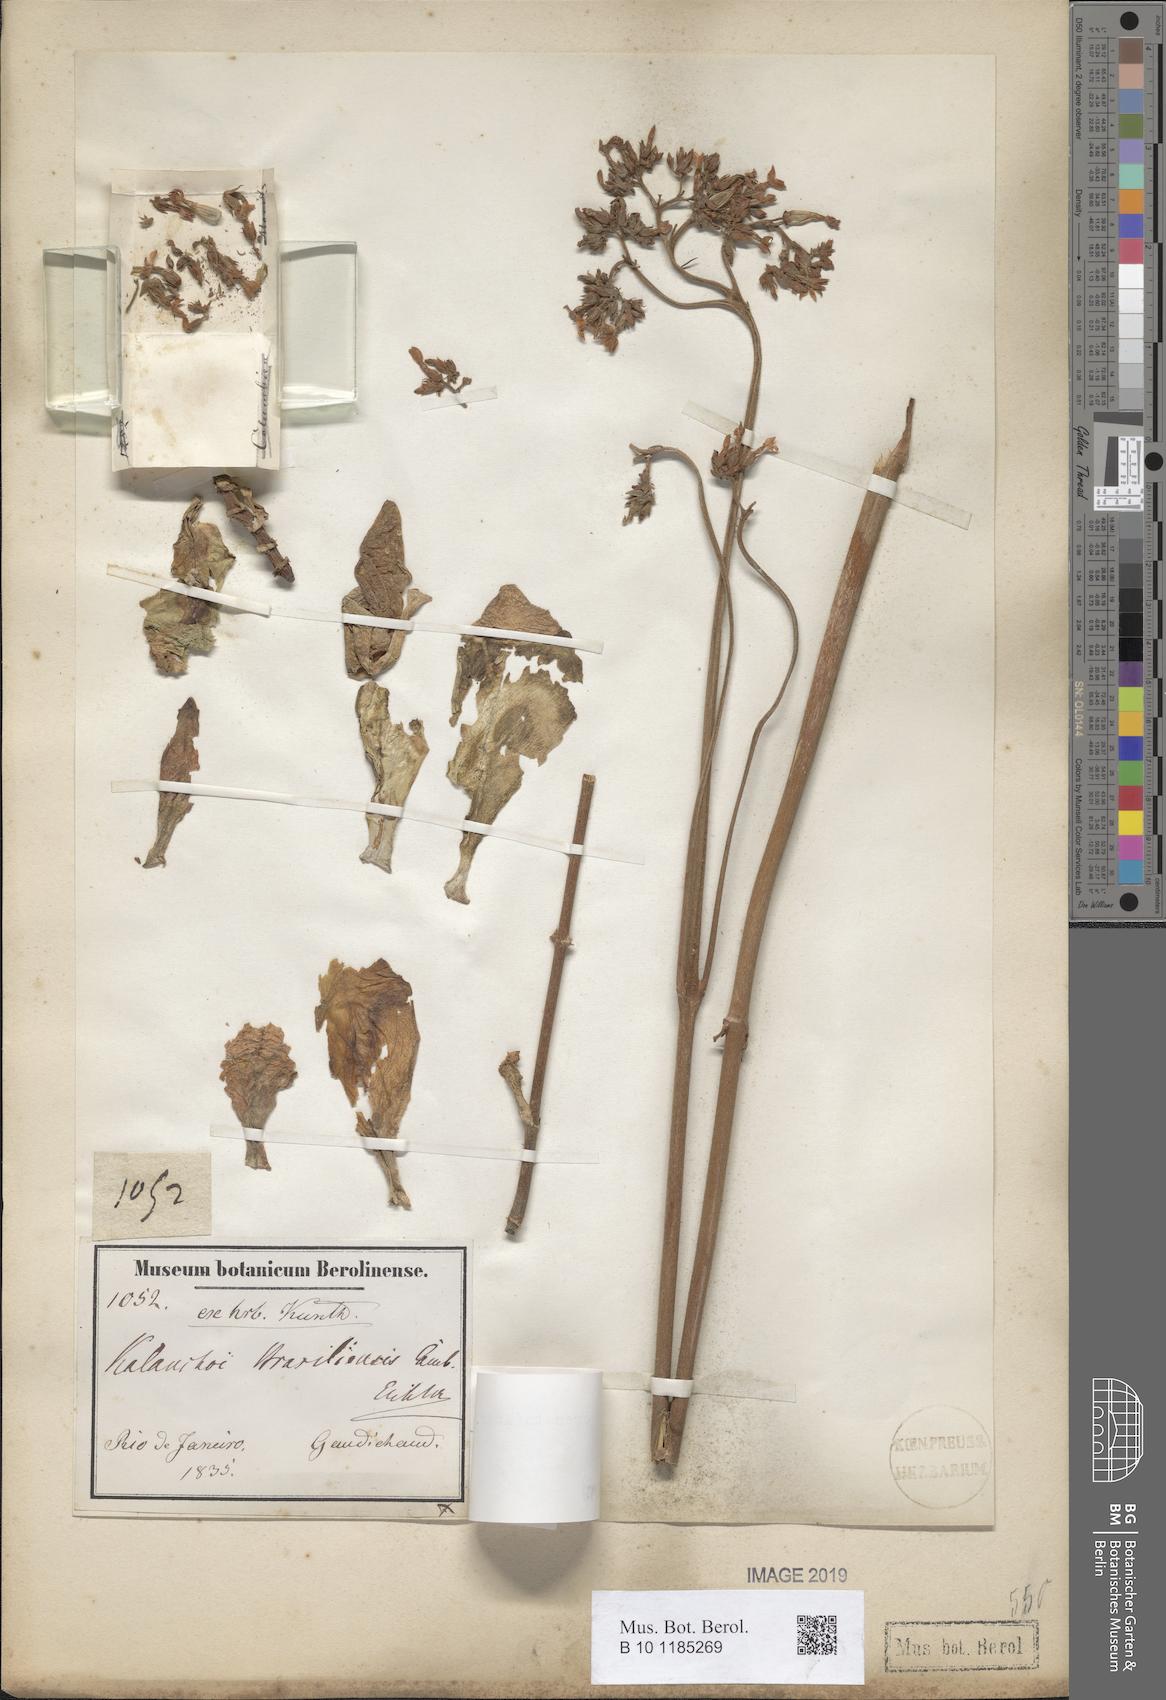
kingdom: Plantae
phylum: Tracheophyta
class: Magnoliopsida
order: Saxifragales
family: Crassulaceae
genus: Kalanchoe
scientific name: Kalanchoe crenata
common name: Neverdie
